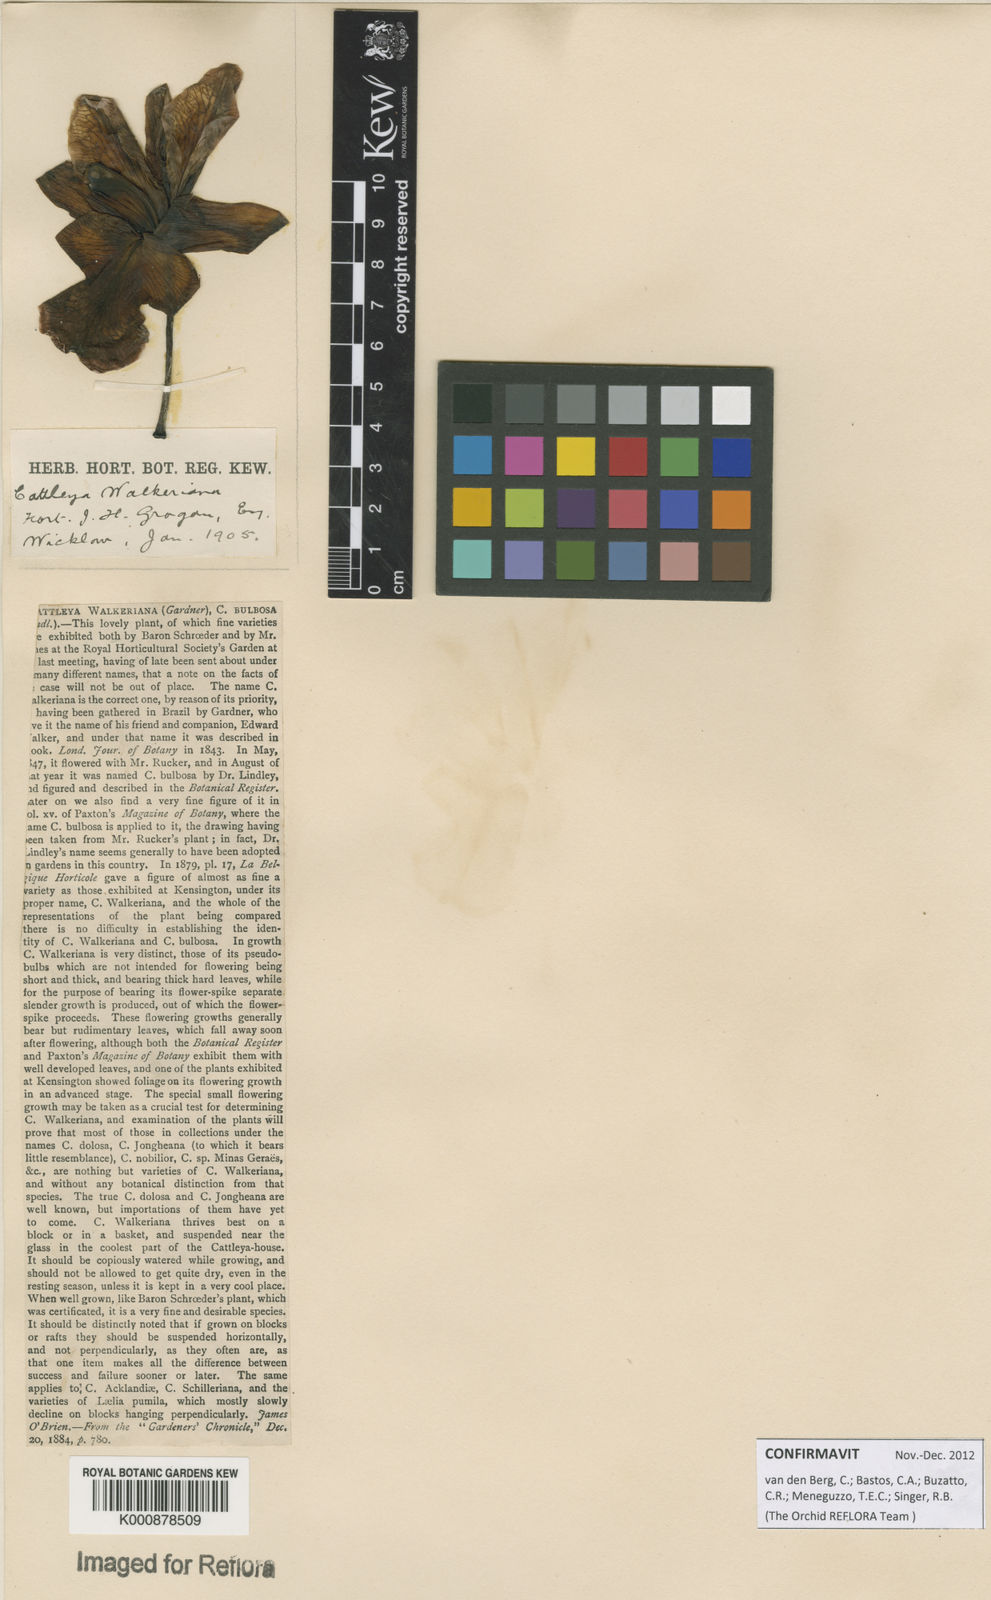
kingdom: Plantae
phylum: Tracheophyta
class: Liliopsida
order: Asparagales
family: Orchidaceae
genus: Cattleya
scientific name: Cattleya walkeriana
